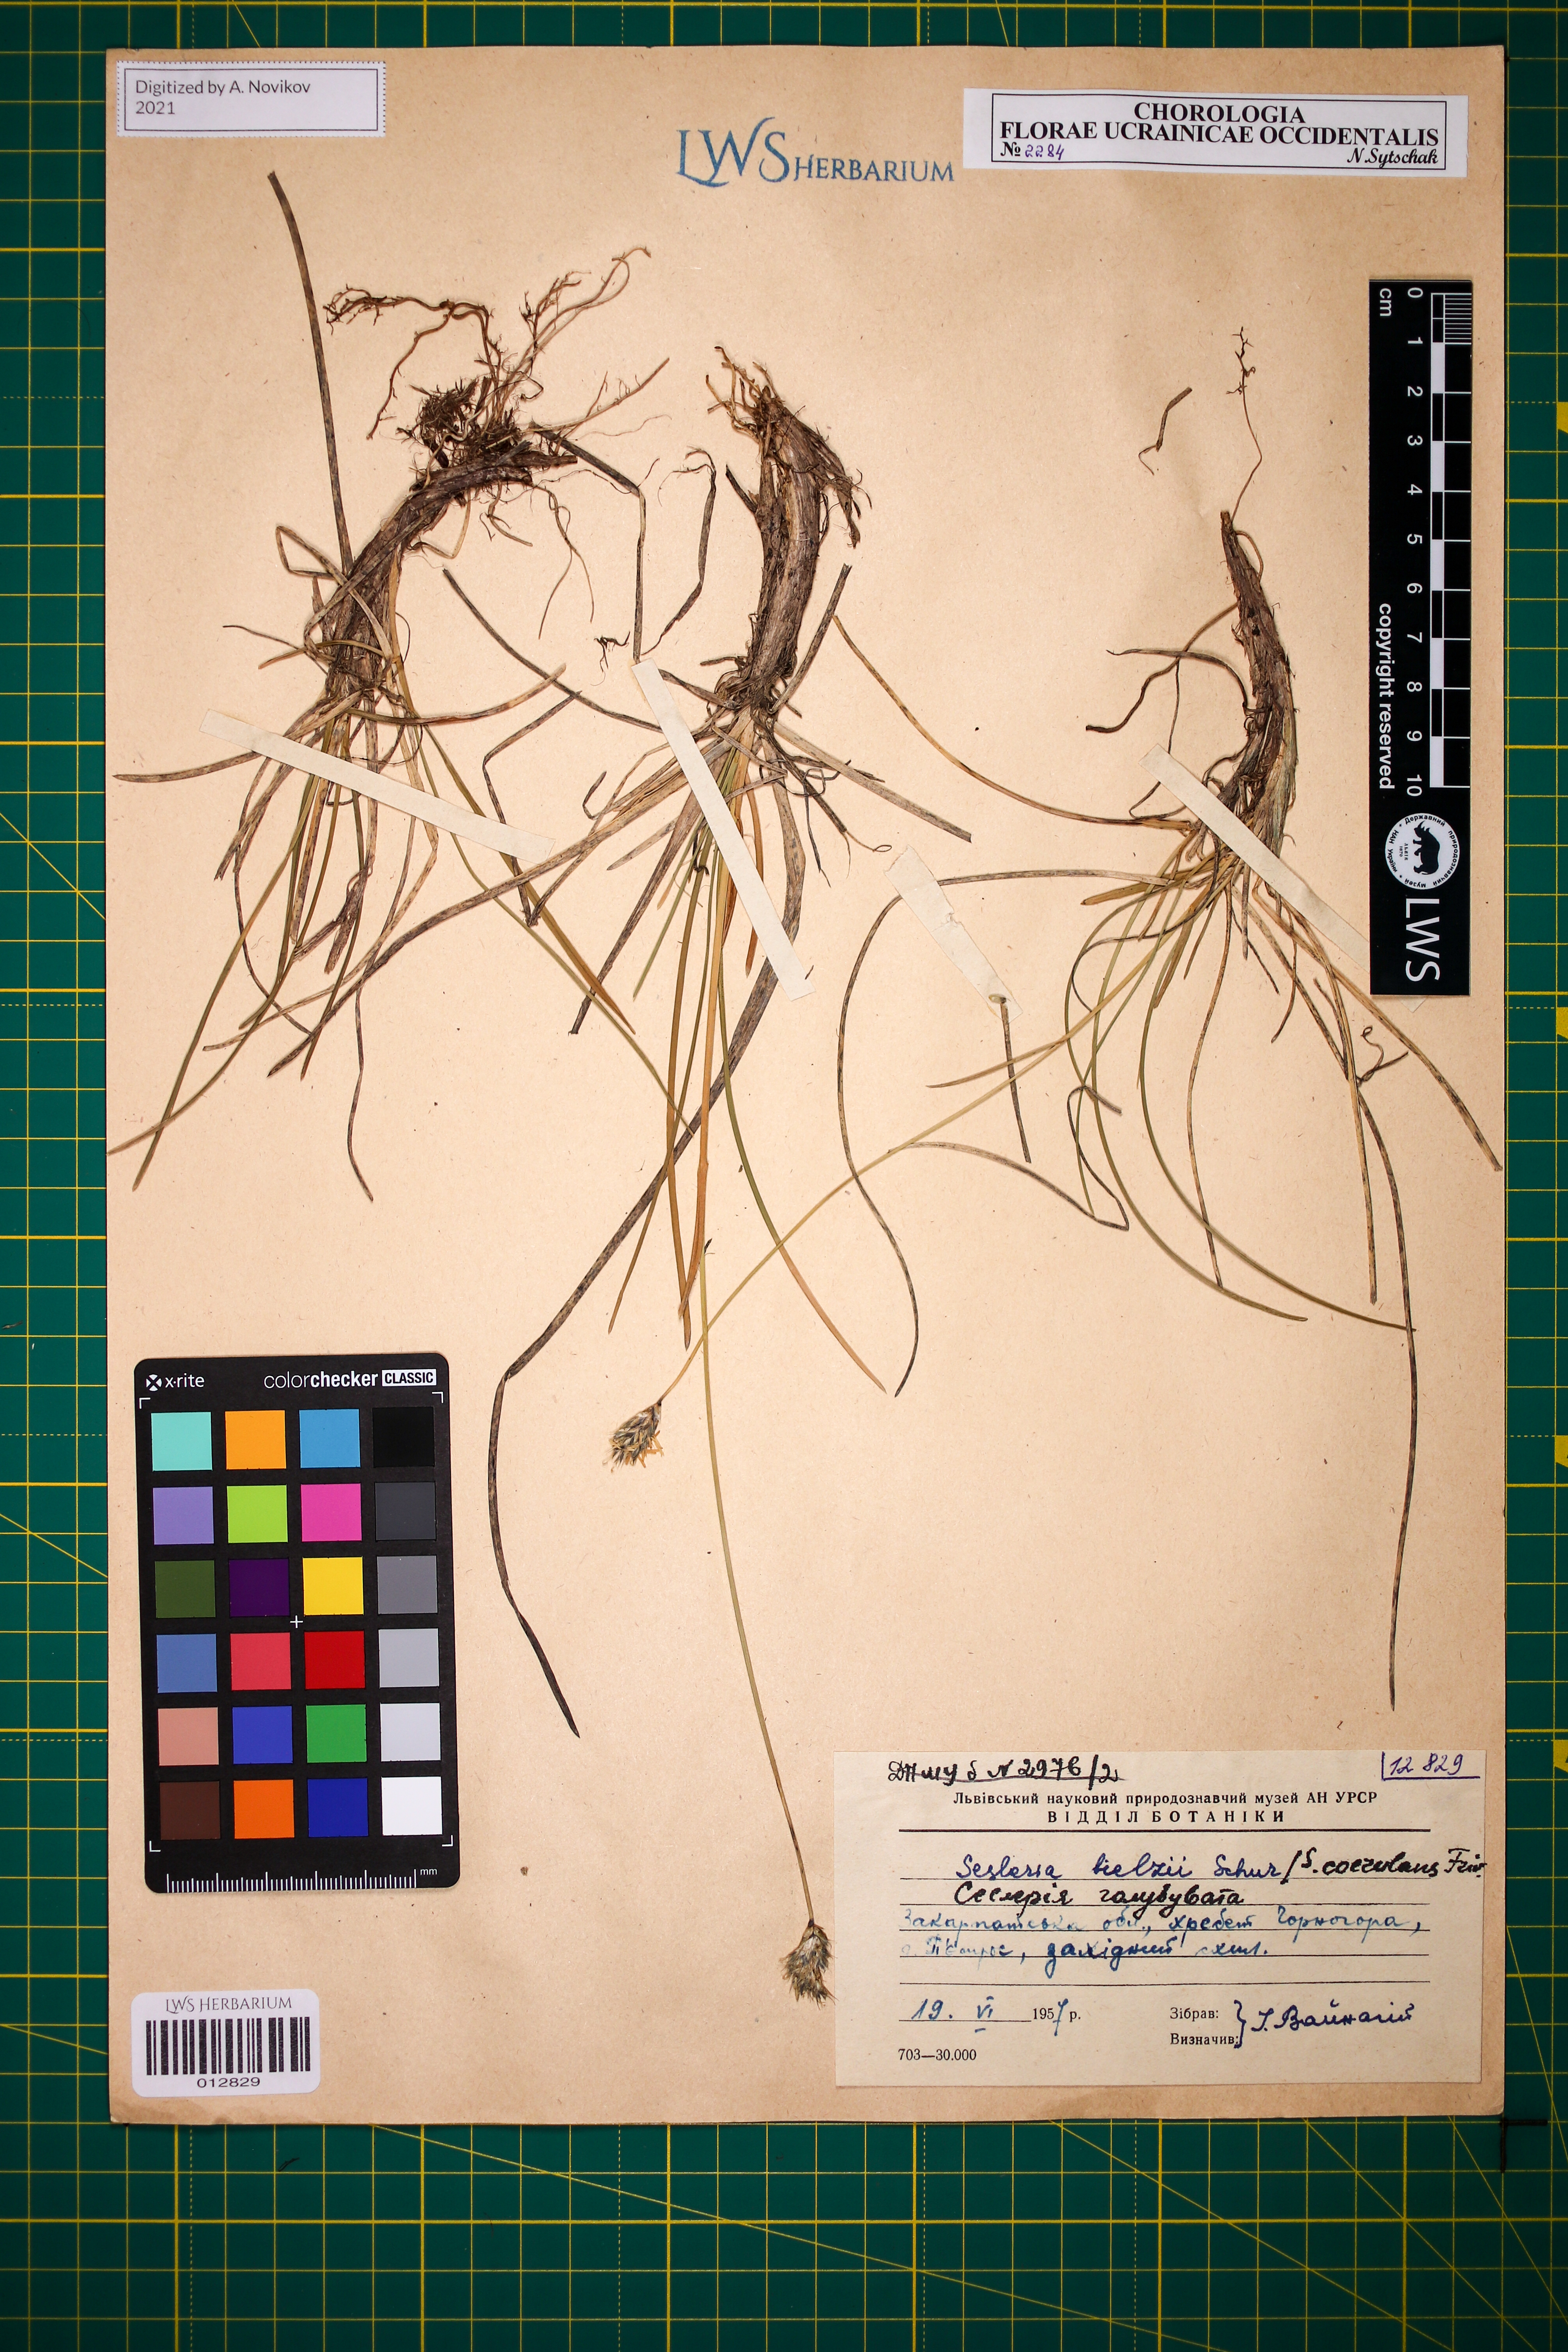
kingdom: Plantae
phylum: Tracheophyta
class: Liliopsida
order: Poales
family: Poaceae
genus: Sesleria
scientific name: Sesleria bielzii
